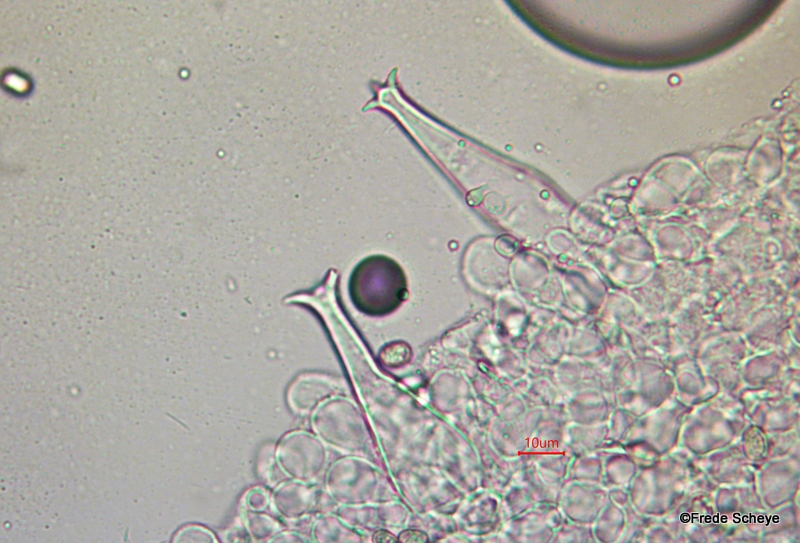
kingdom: Fungi
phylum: Basidiomycota
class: Agaricomycetes
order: Agaricales
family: Pluteaceae
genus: Pluteus
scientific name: Pluteus cervinus
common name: sodfarvet skærmhat
